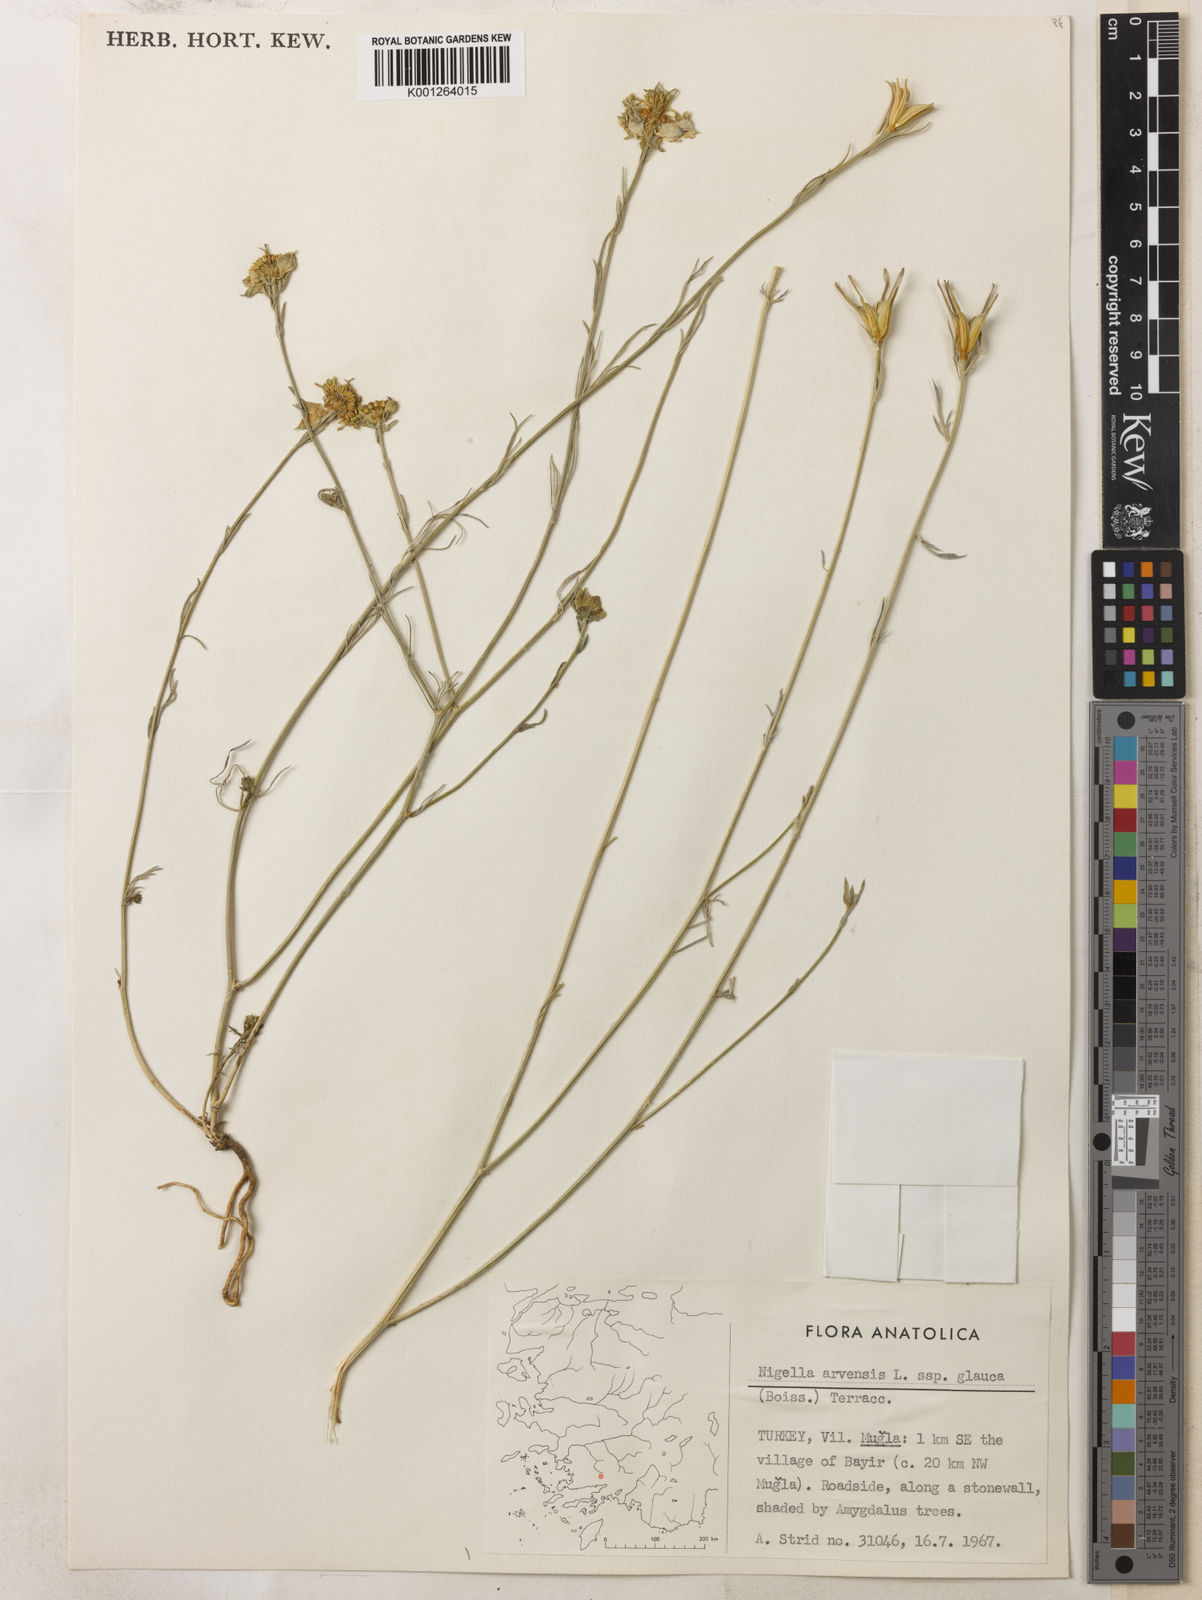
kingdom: Plantae
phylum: Tracheophyta
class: Magnoliopsida
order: Ranunculales
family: Ranunculaceae
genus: Nigella
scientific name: Nigella arvensis
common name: Wild fennel-flower
